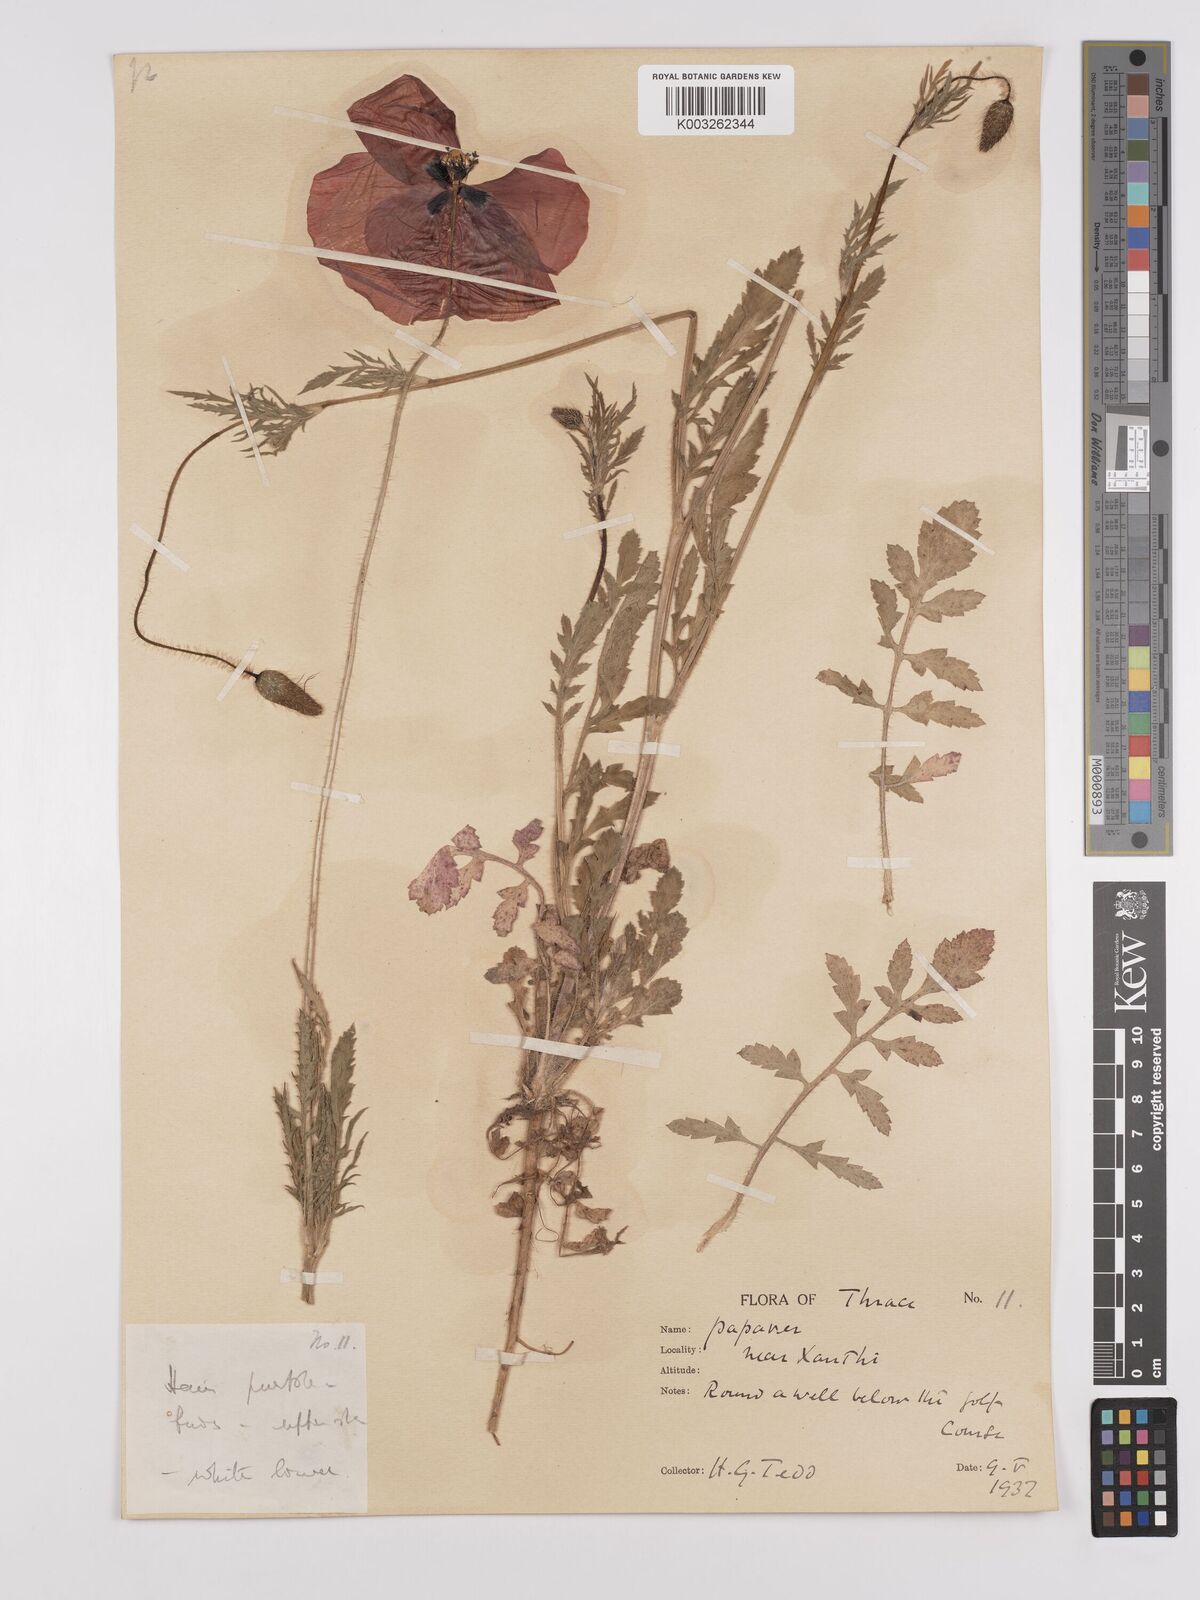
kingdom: Plantae
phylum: Tracheophyta
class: Magnoliopsida
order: Ranunculales
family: Papaveraceae
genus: Papaver
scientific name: Papaver rhoeas
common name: Corn poppy
